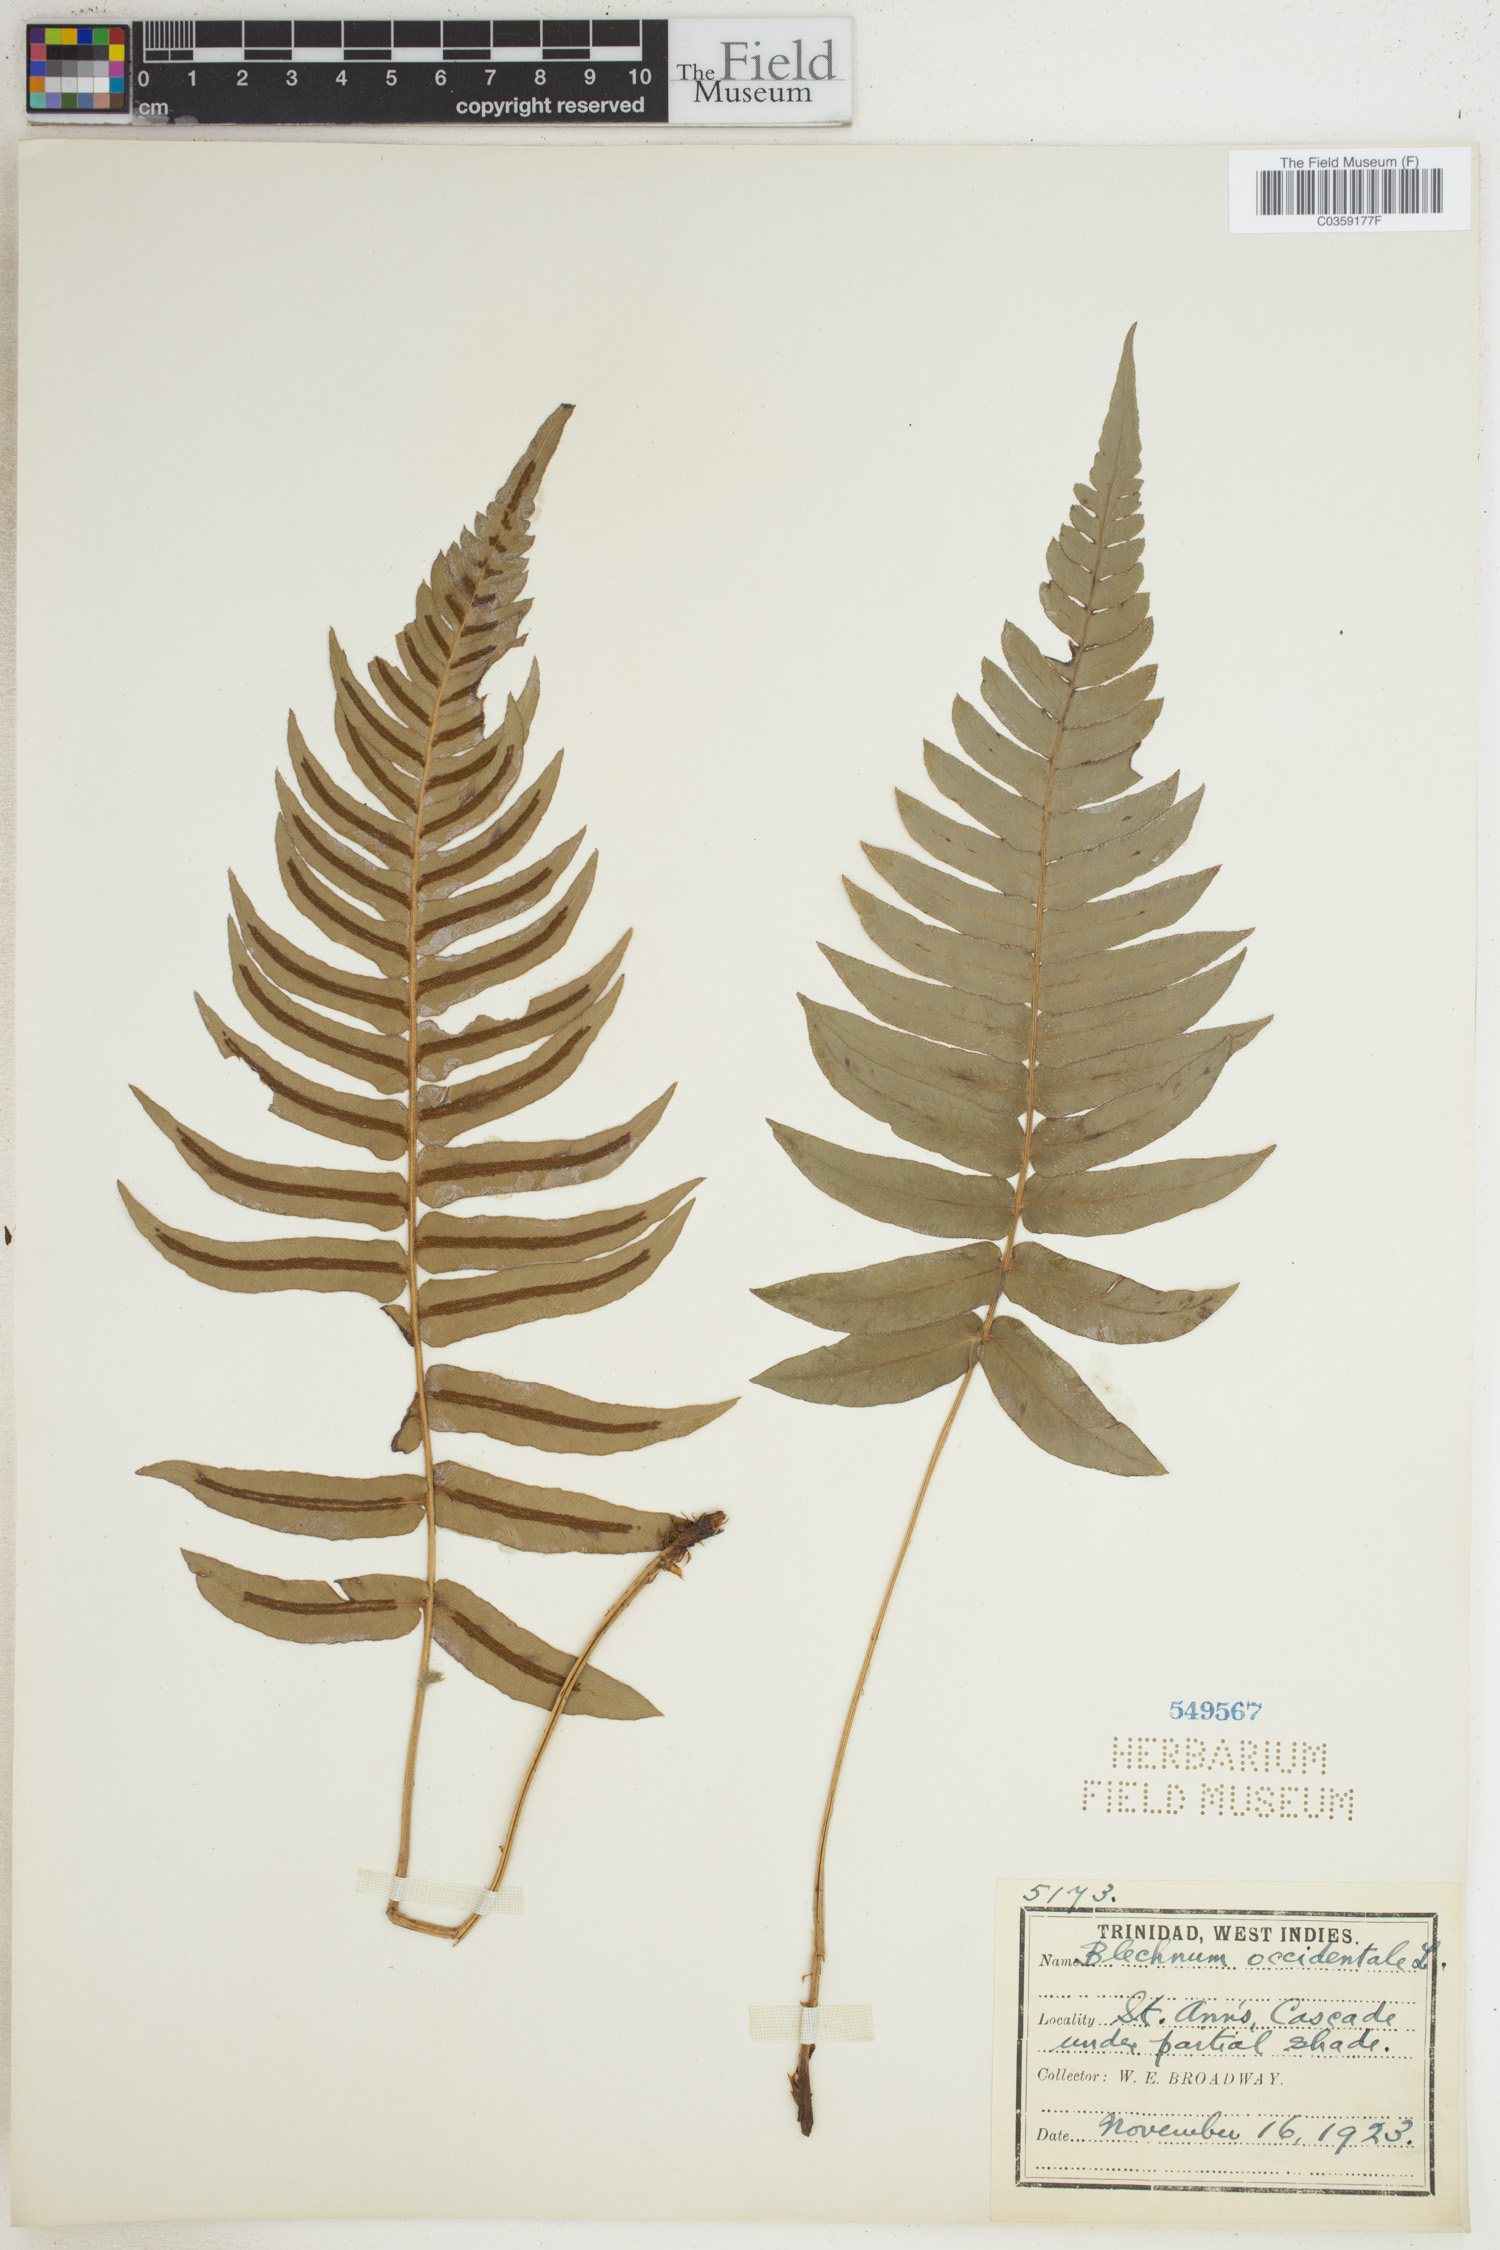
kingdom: Plantae
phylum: Tracheophyta
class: Polypodiopsida
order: Polypodiales
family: Blechnaceae
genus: Blechnum
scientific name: Blechnum occidentale
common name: Hammock fern
